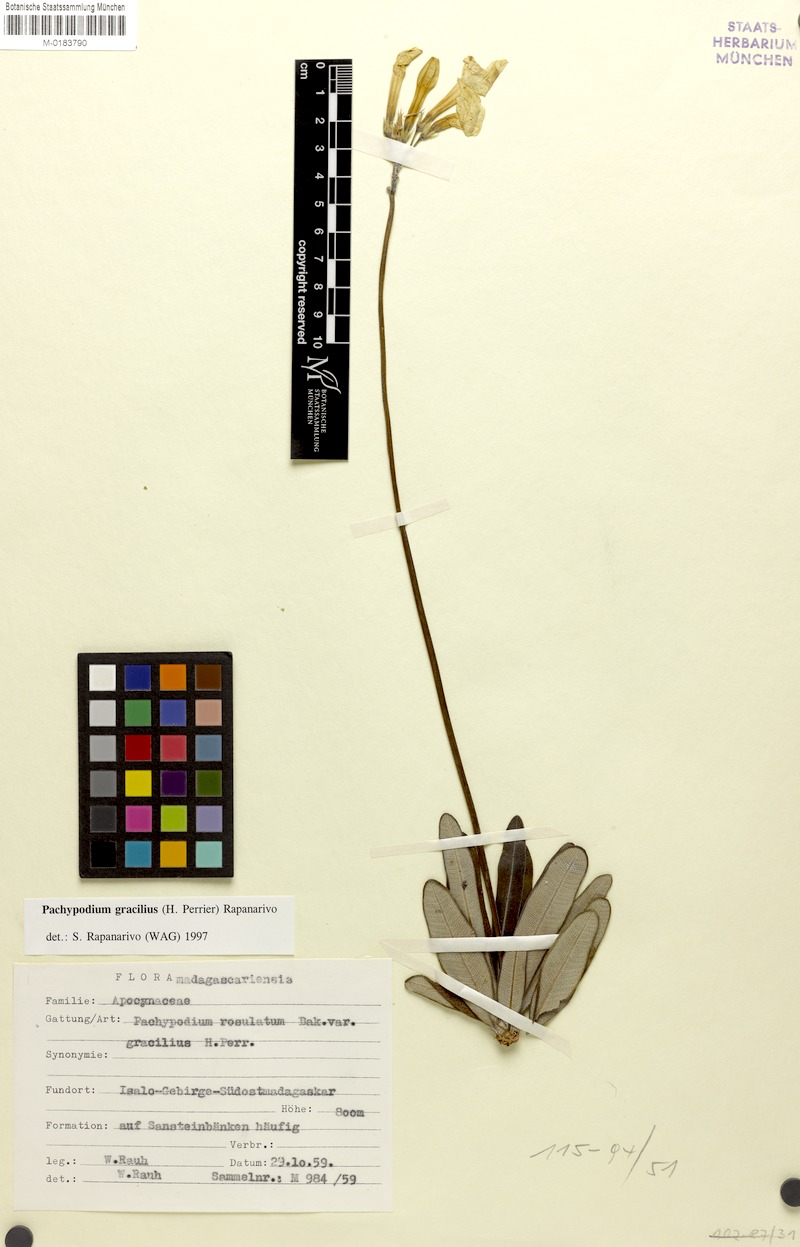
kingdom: Plantae
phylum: Tracheophyta
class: Magnoliopsida
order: Gentianales
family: Apocynaceae
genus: Pachypodium
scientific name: Pachypodium gracilius
